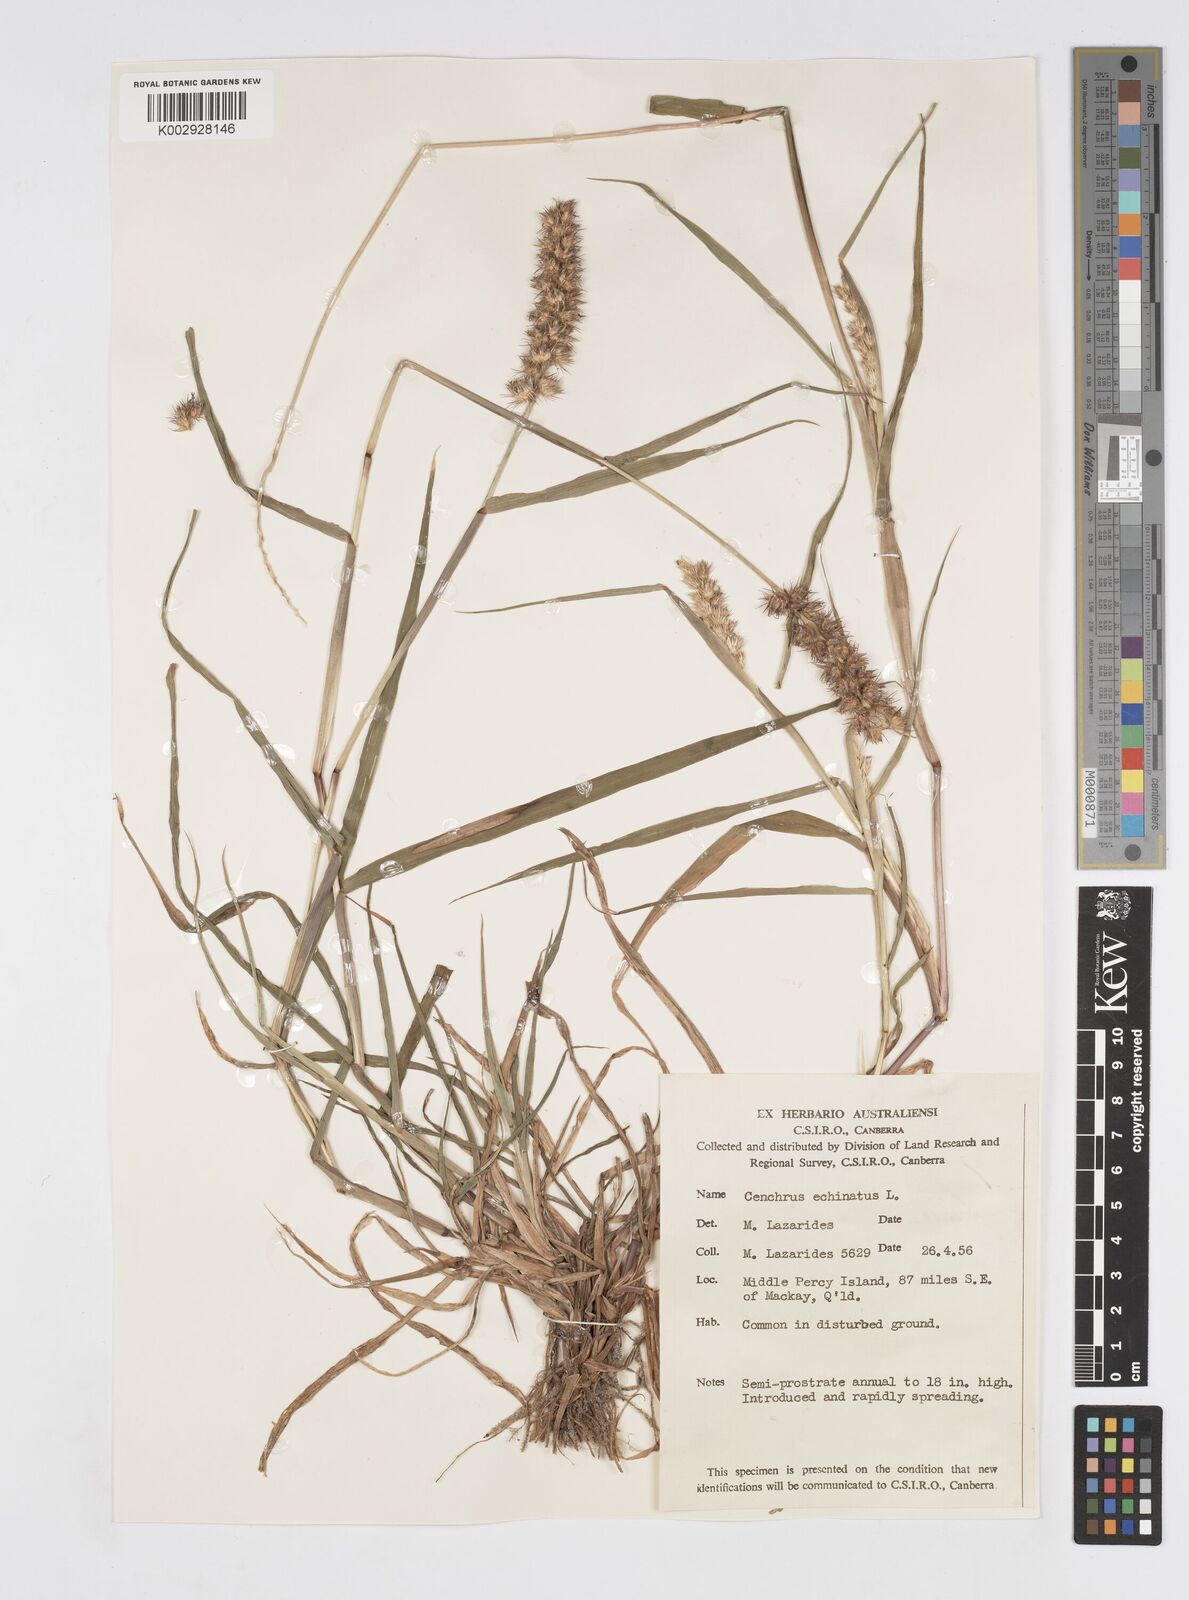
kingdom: Plantae
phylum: Tracheophyta
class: Liliopsida
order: Poales
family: Poaceae
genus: Cenchrus
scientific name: Cenchrus echinatus
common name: Southern sandbur
